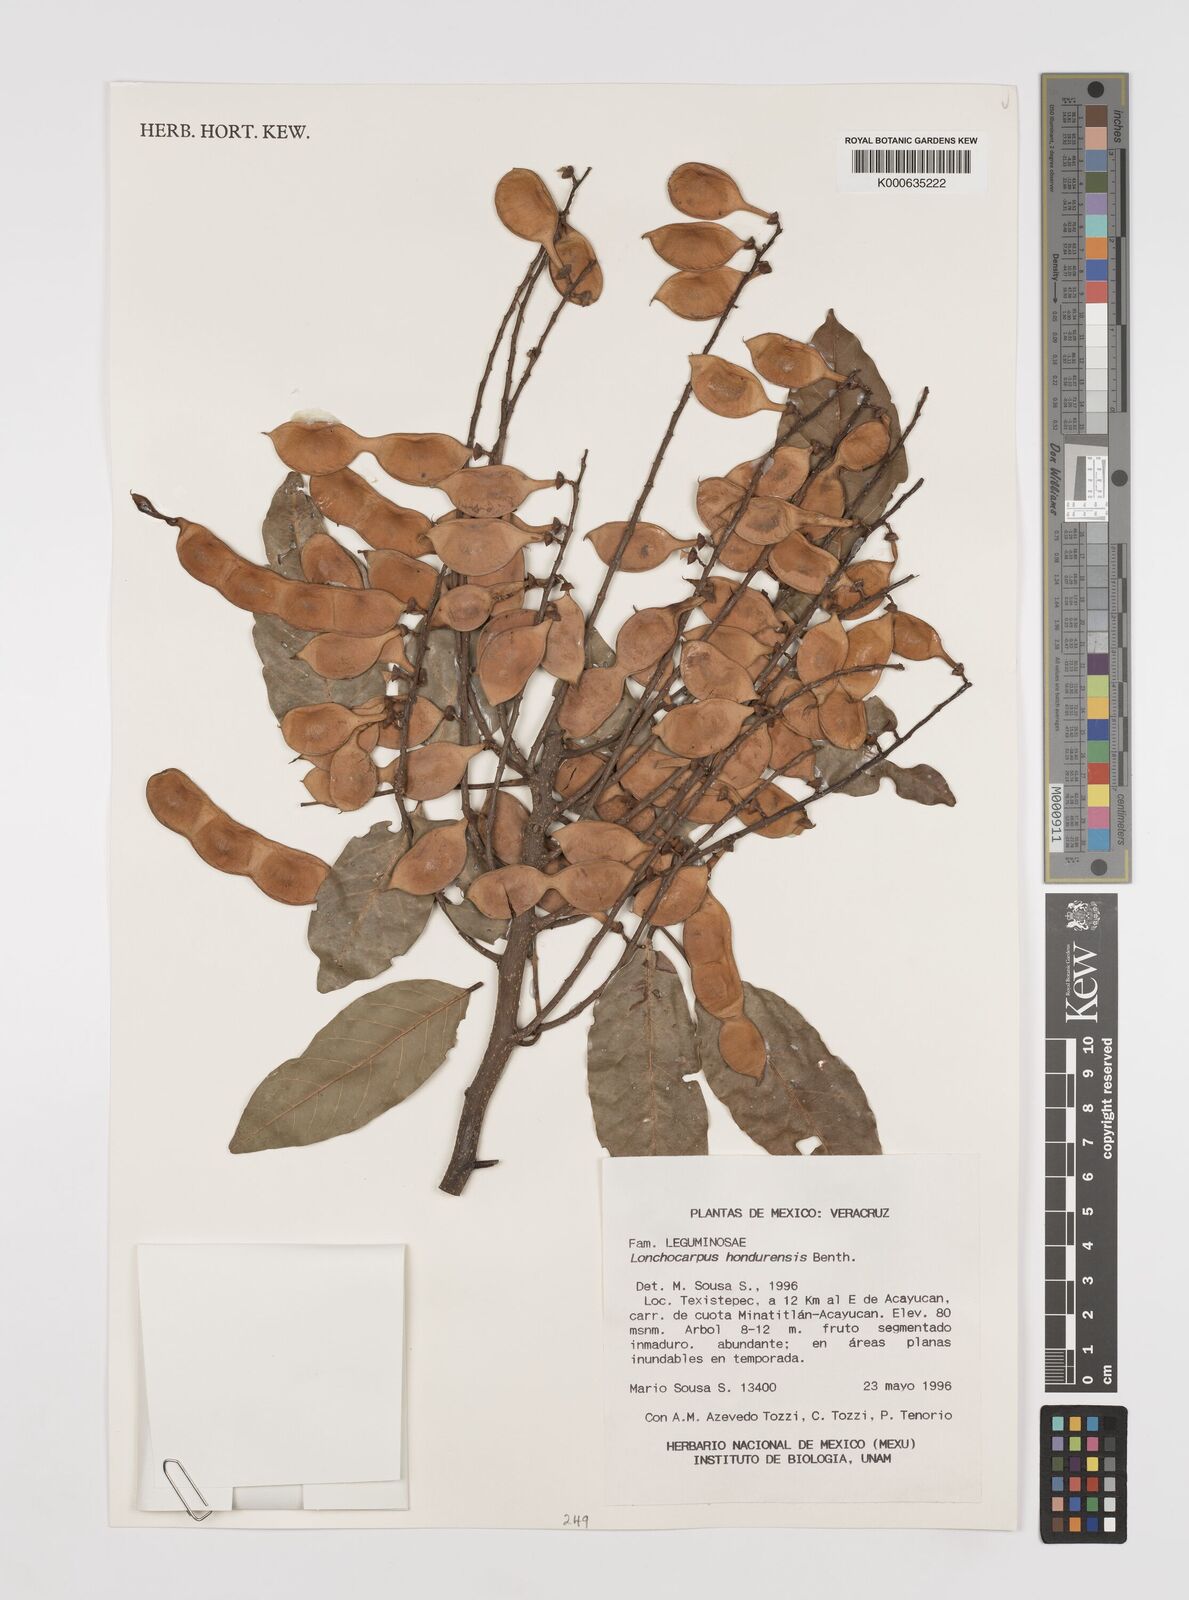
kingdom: Plantae
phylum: Tracheophyta
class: Magnoliopsida
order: Fabales
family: Fabaceae
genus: Lonchocarpus
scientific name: Lonchocarpus hondurensis
